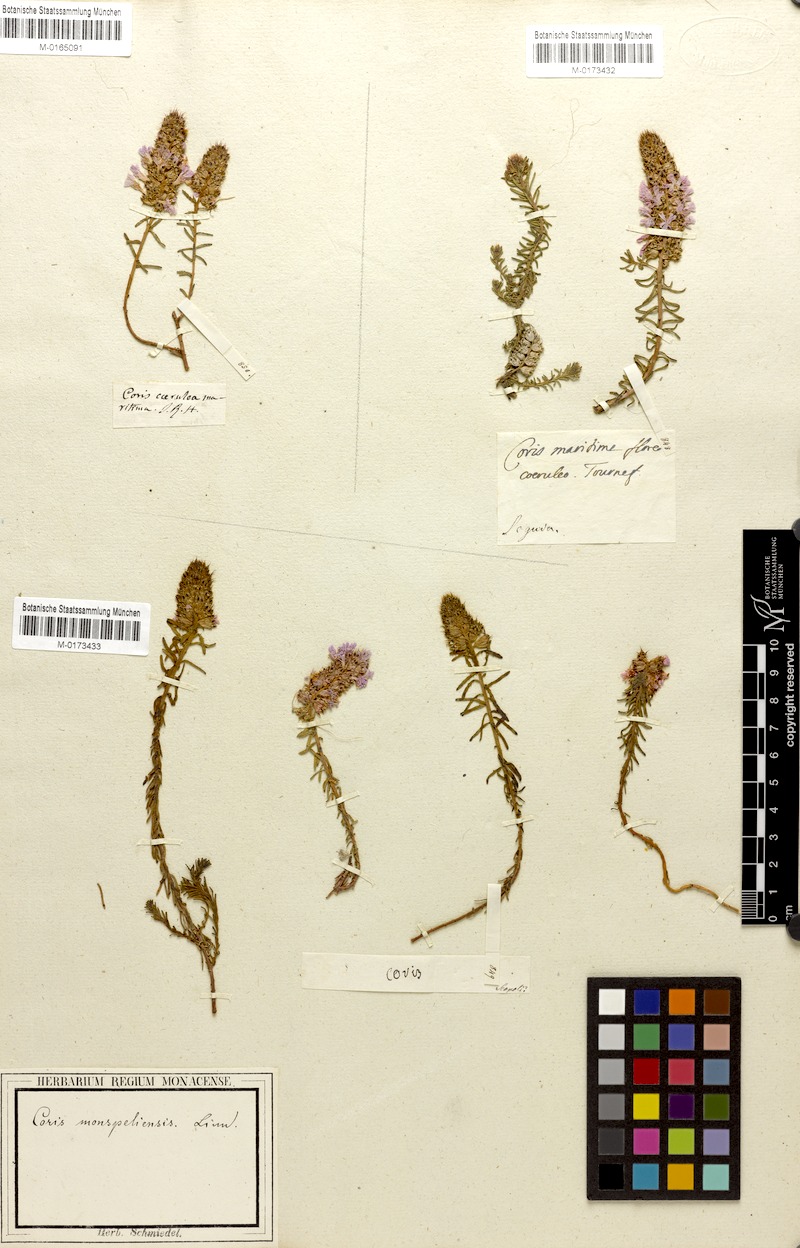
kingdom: Plantae
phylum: Tracheophyta
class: Magnoliopsida
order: Ericales
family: Primulaceae
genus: Coris
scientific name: Coris monspeliensis
